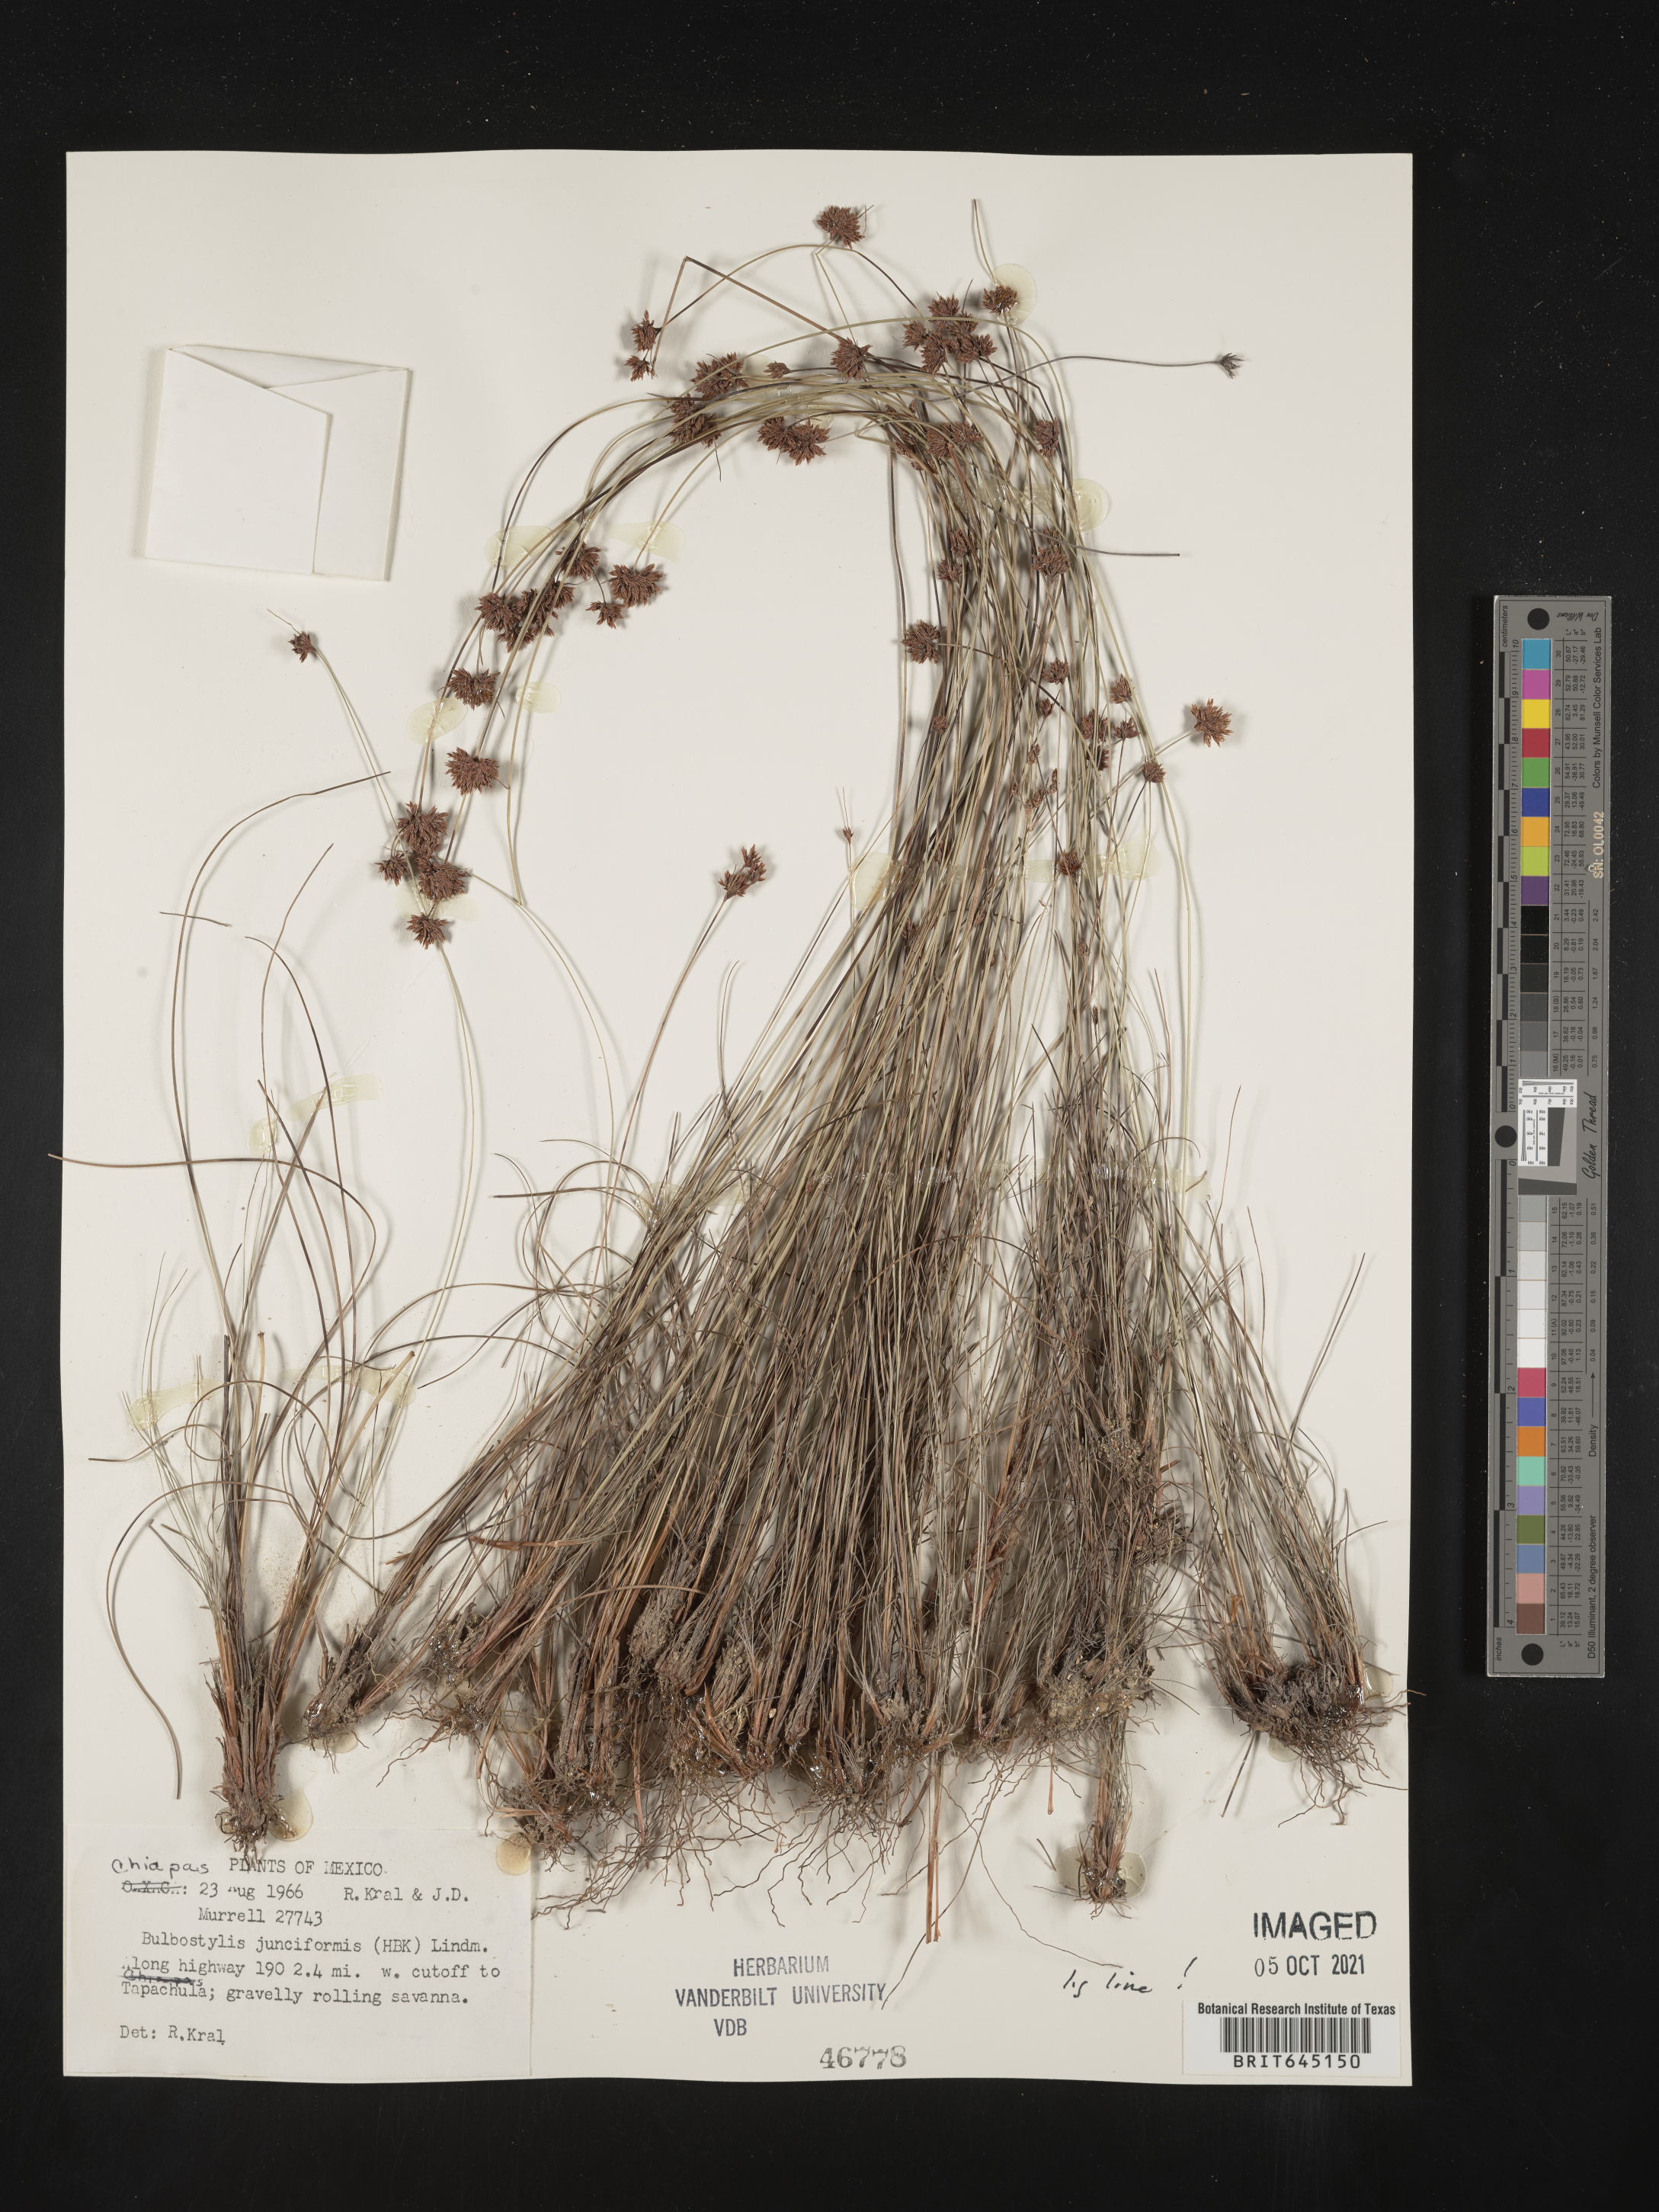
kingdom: Plantae
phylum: Tracheophyta
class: Liliopsida
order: Poales
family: Cyperaceae
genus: Bulbostylis
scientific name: Bulbostylis junciformis
